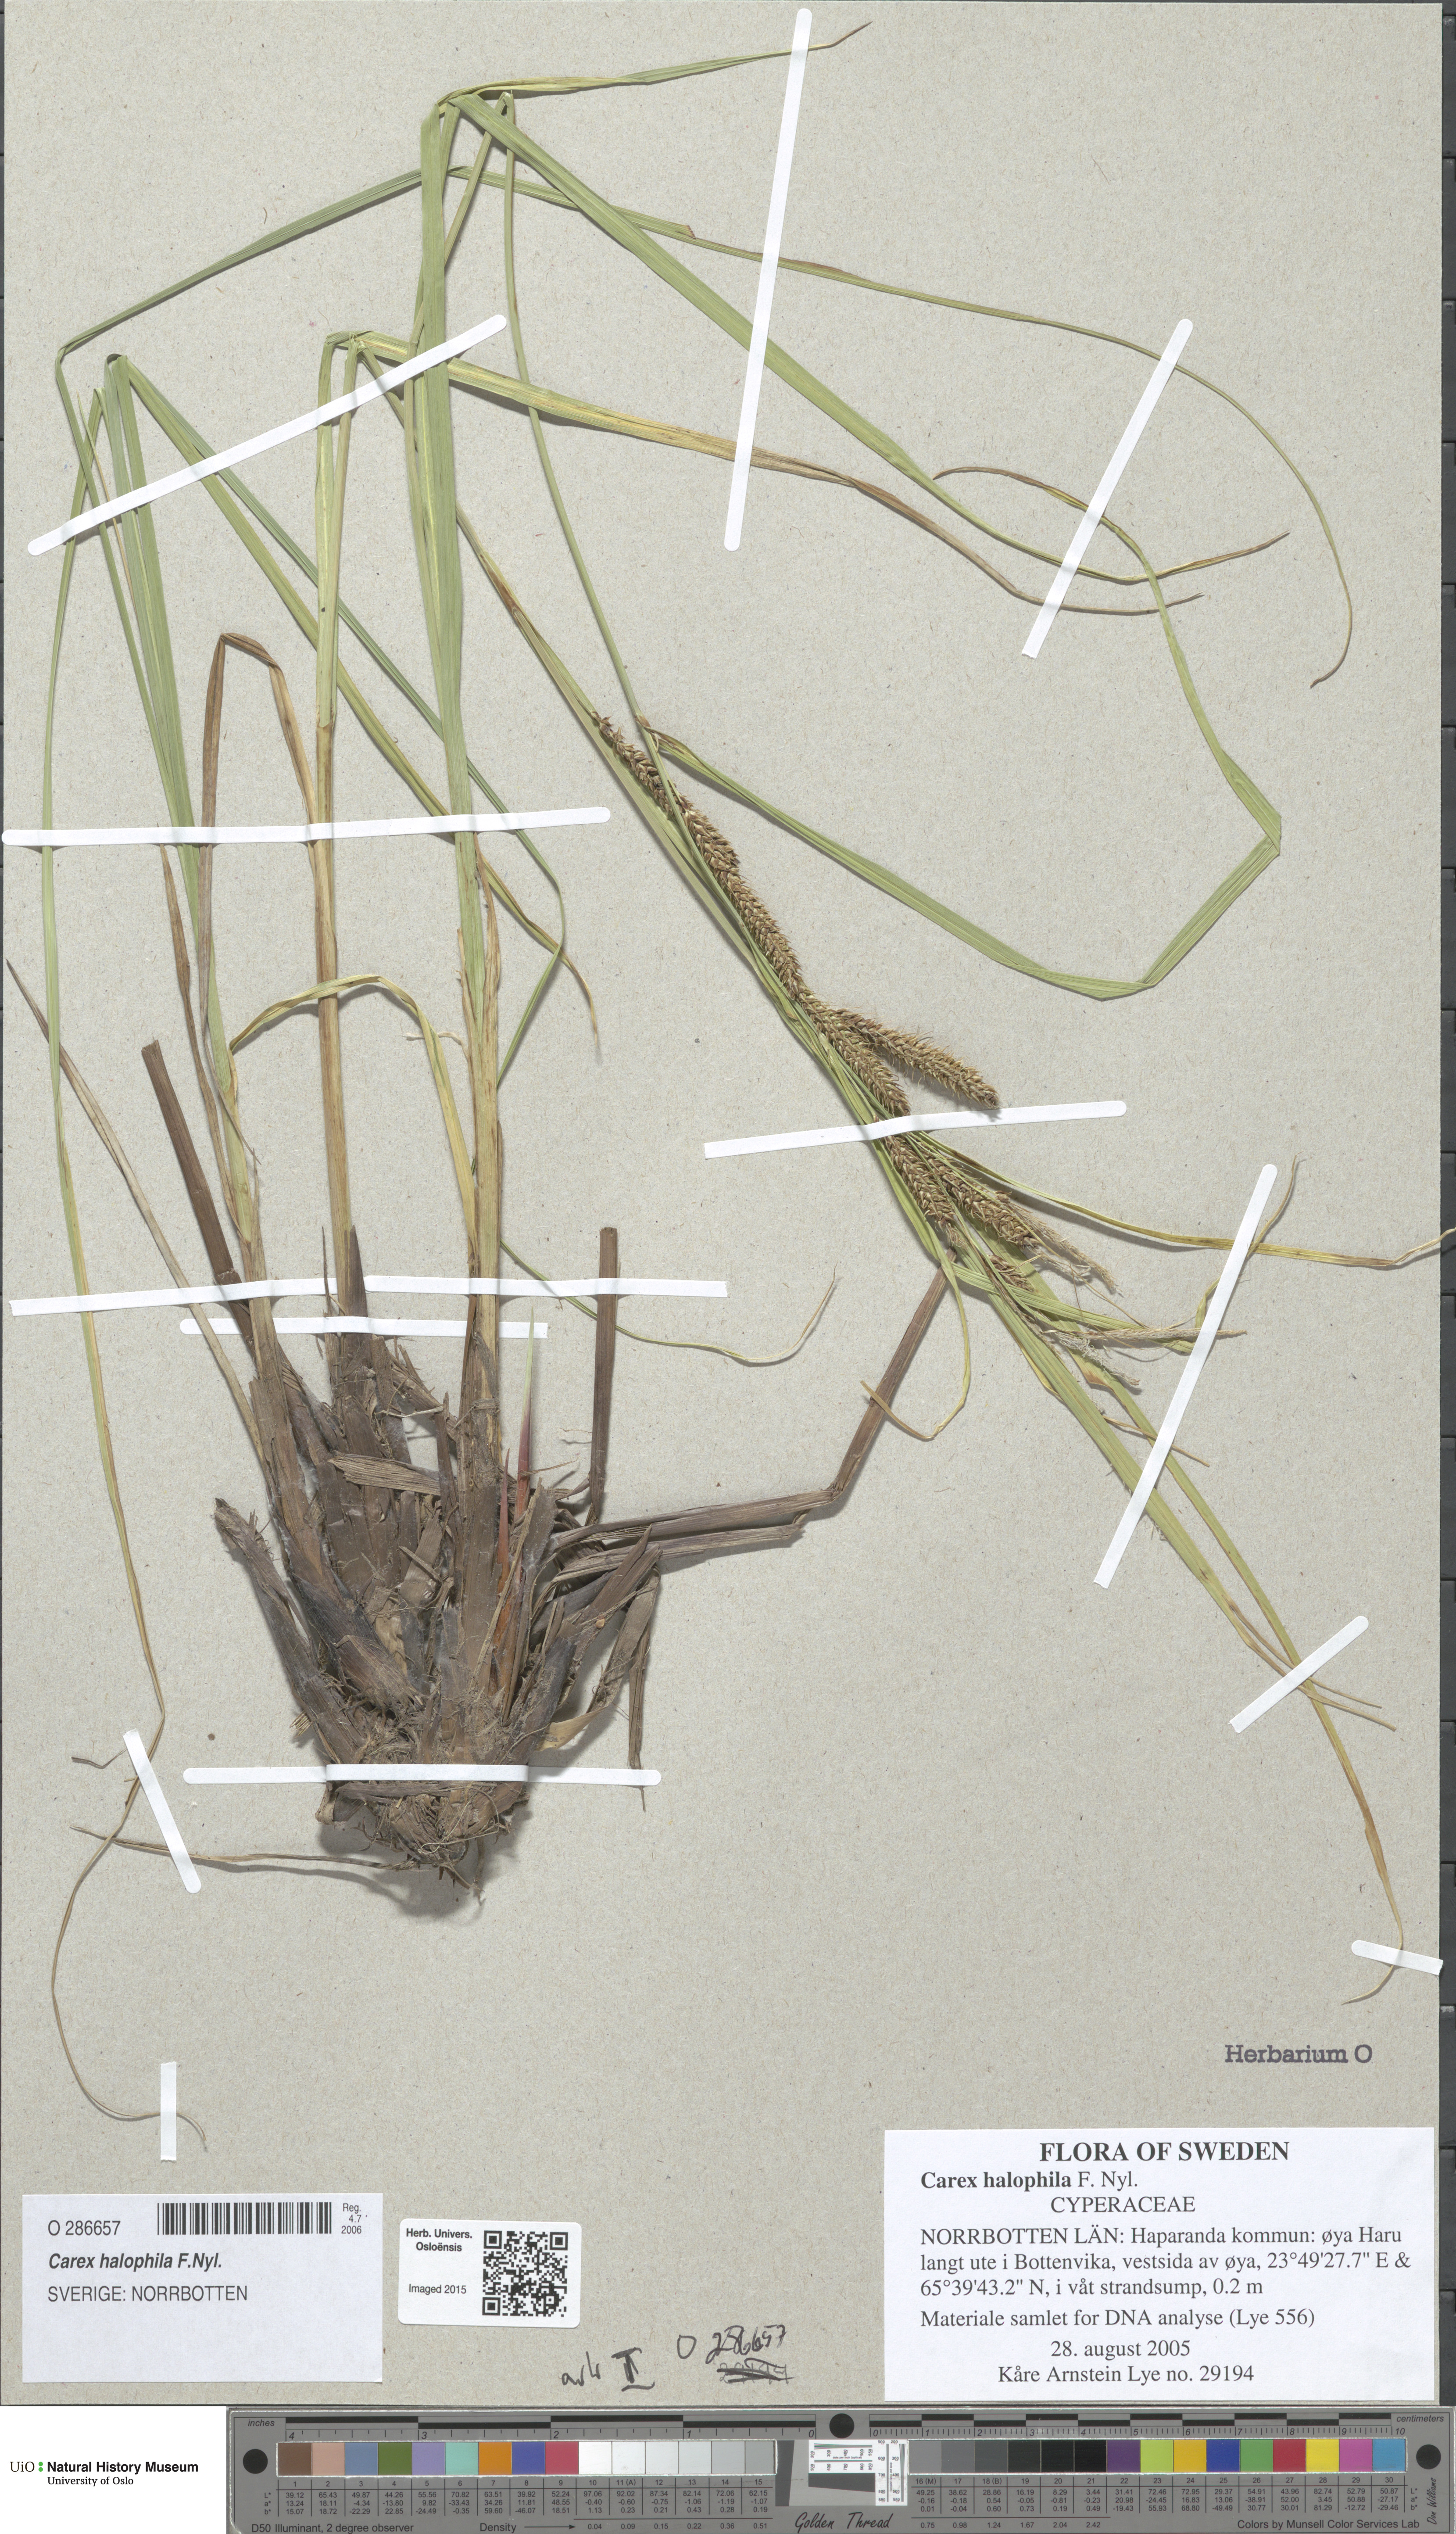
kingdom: Plantae
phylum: Tracheophyta
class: Liliopsida
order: Poales
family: Cyperaceae
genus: Carex
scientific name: Carex halophila
